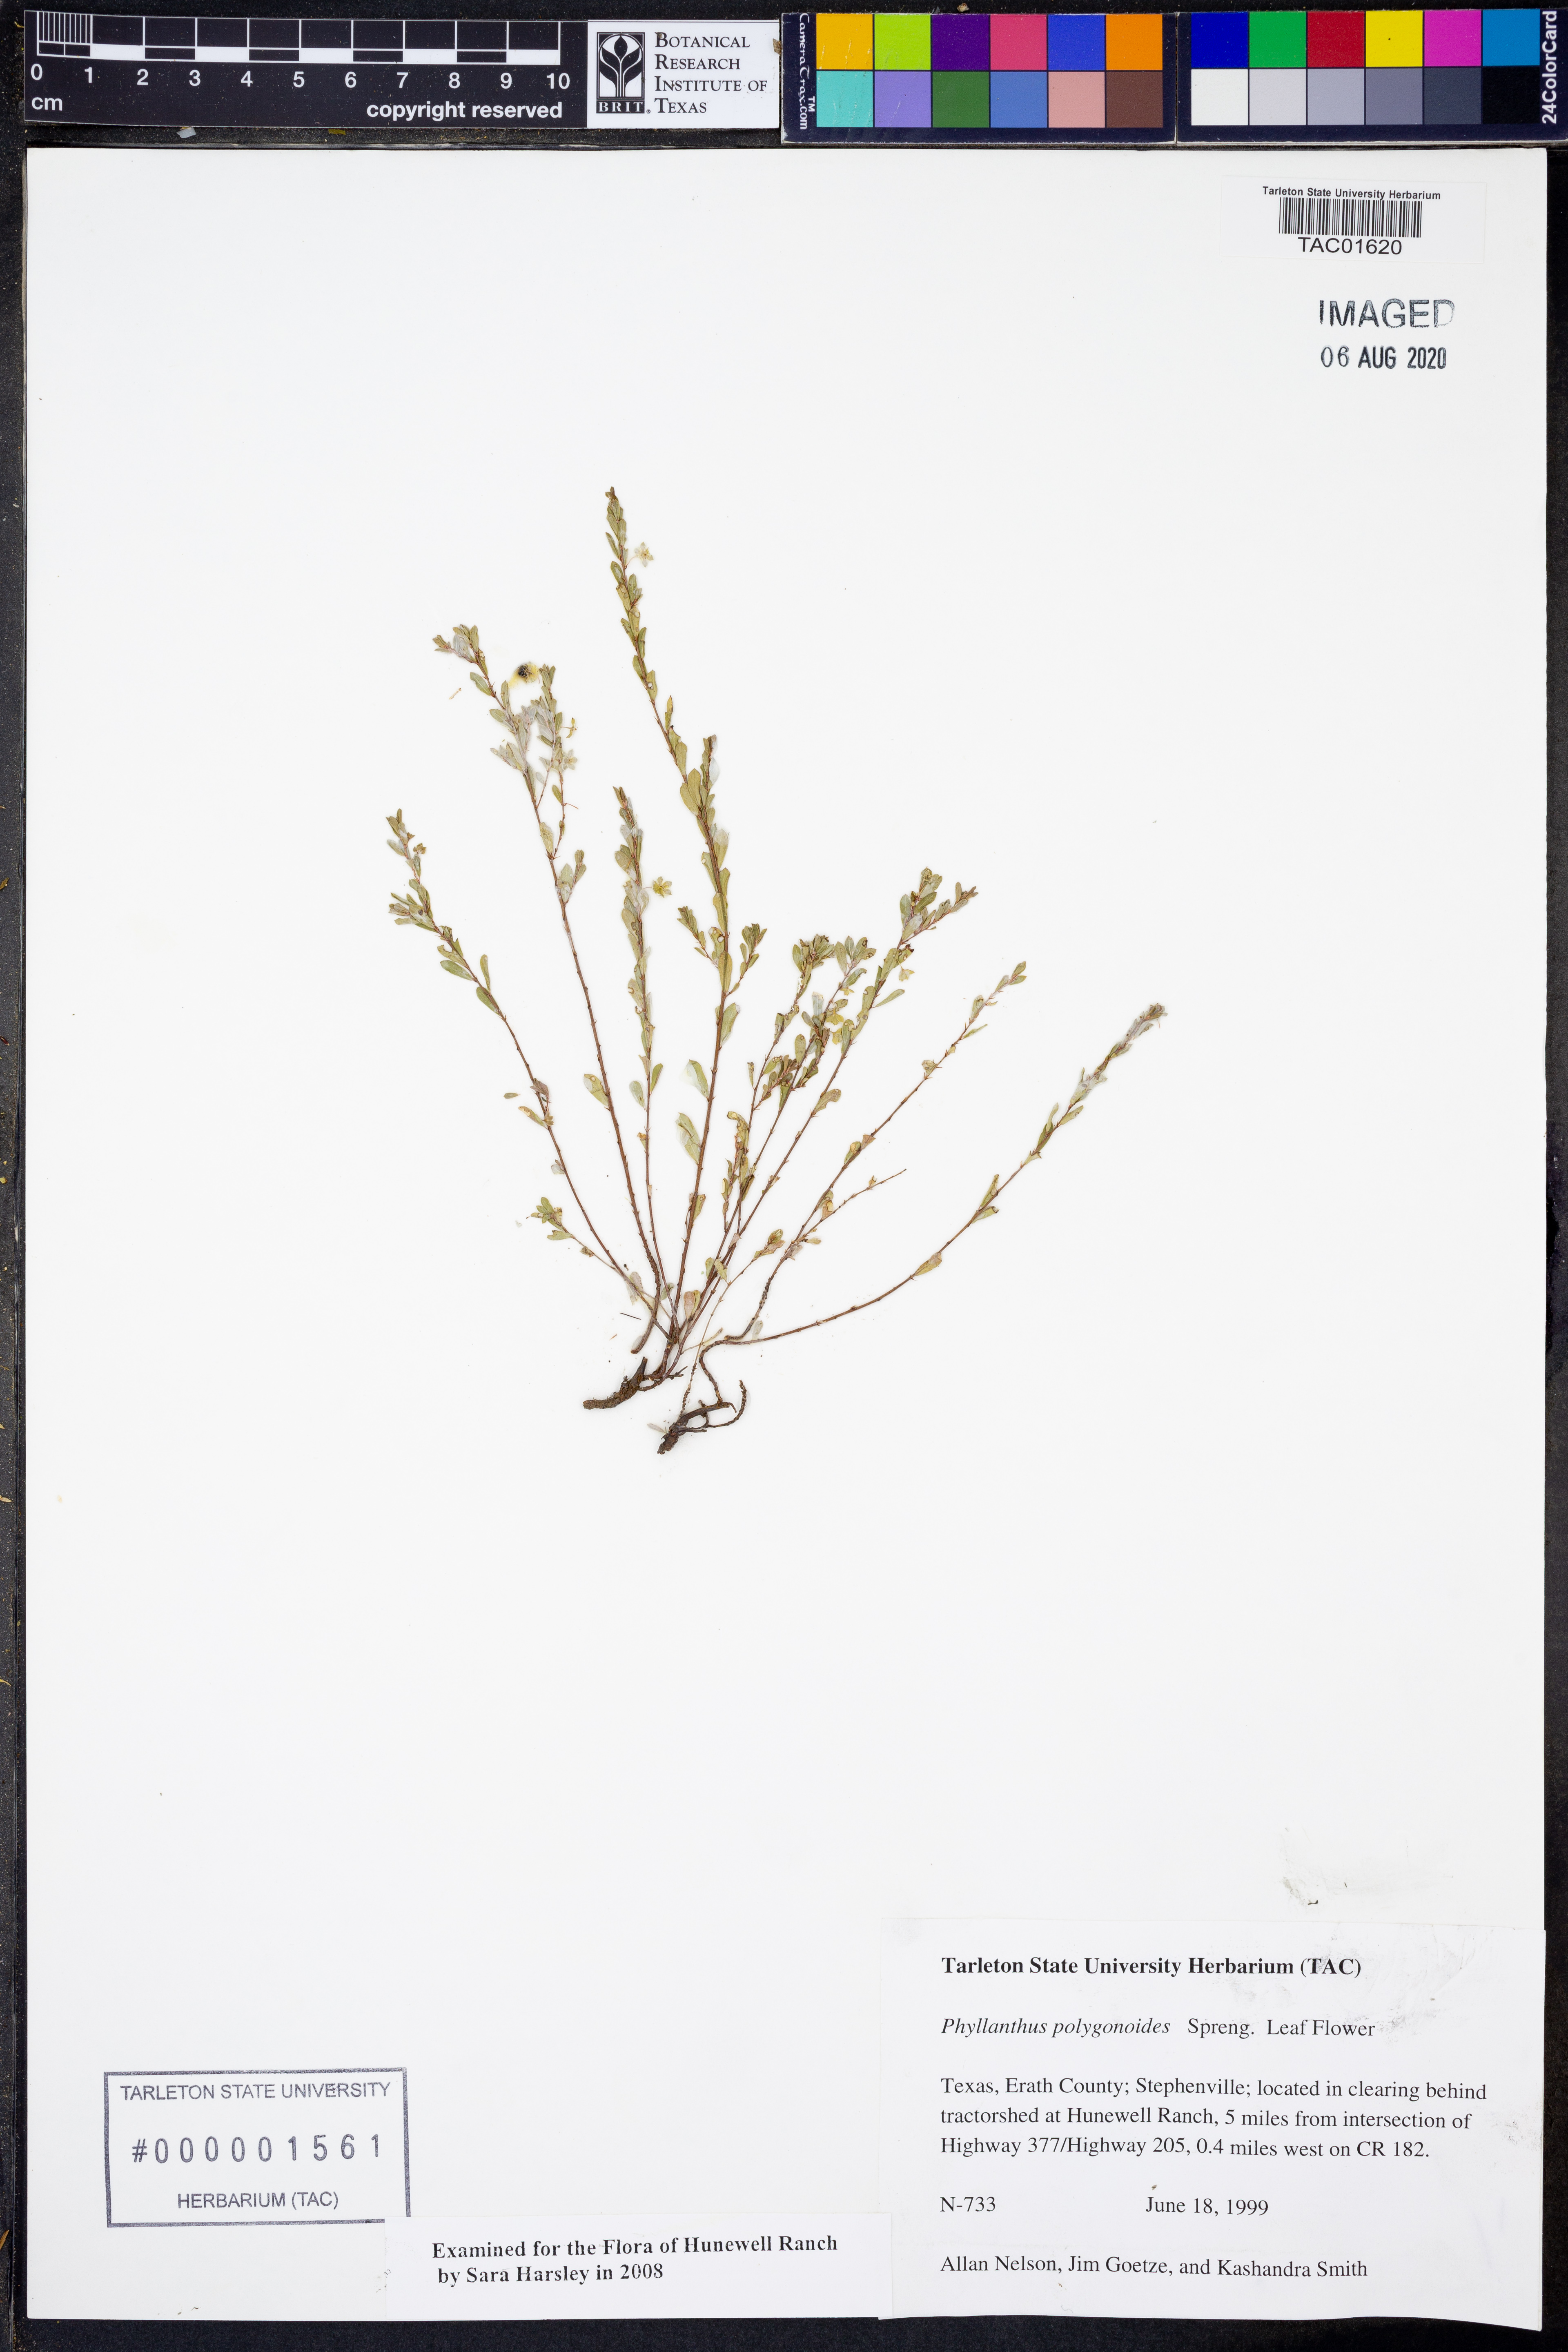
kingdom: Plantae
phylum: Tracheophyta
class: Magnoliopsida
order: Malpighiales
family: Phyllanthaceae
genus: Phyllanthus
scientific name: Phyllanthus polygonoides
